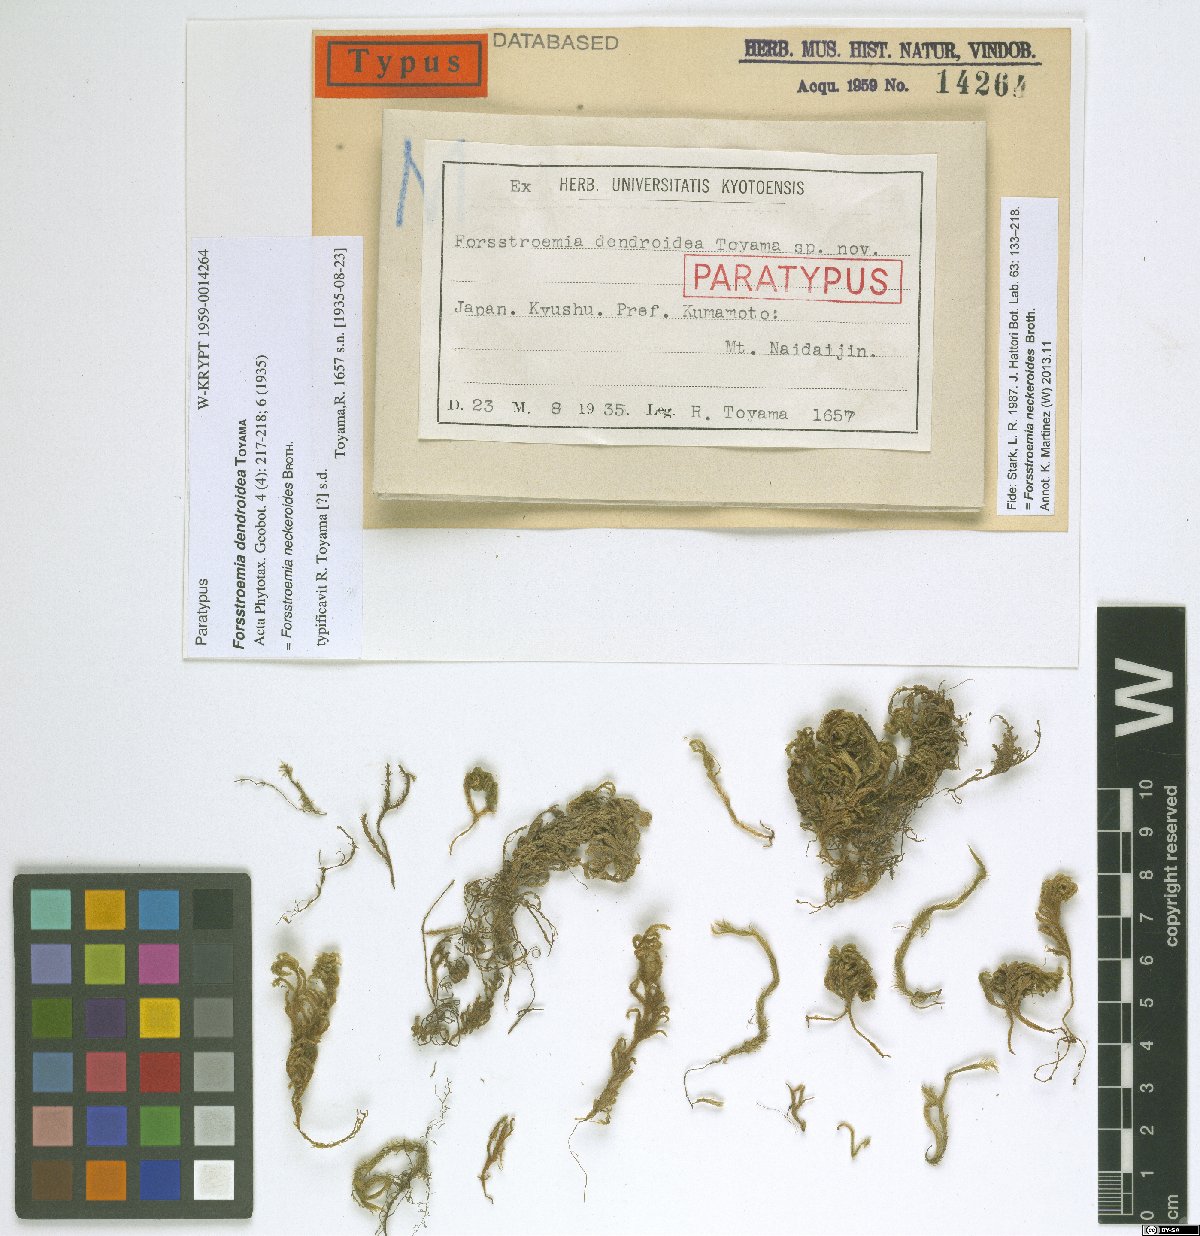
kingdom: Plantae
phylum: Bryophyta
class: Bryopsida
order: Hypnales
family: Neckeraceae
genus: Forsstroemia
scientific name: Forsstroemia neckeroides
